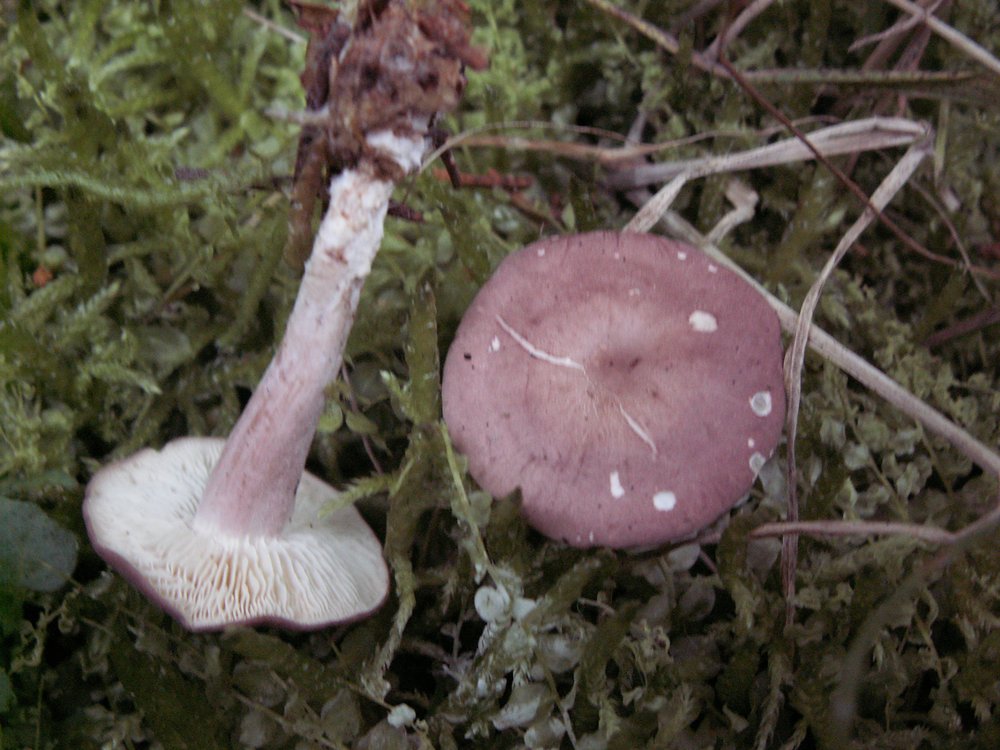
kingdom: Fungi
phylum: Basidiomycota
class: Agaricomycetes
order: Agaricales
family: Lyophyllaceae
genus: Calocybe
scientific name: Calocybe carnea
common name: rosa fagerhat
